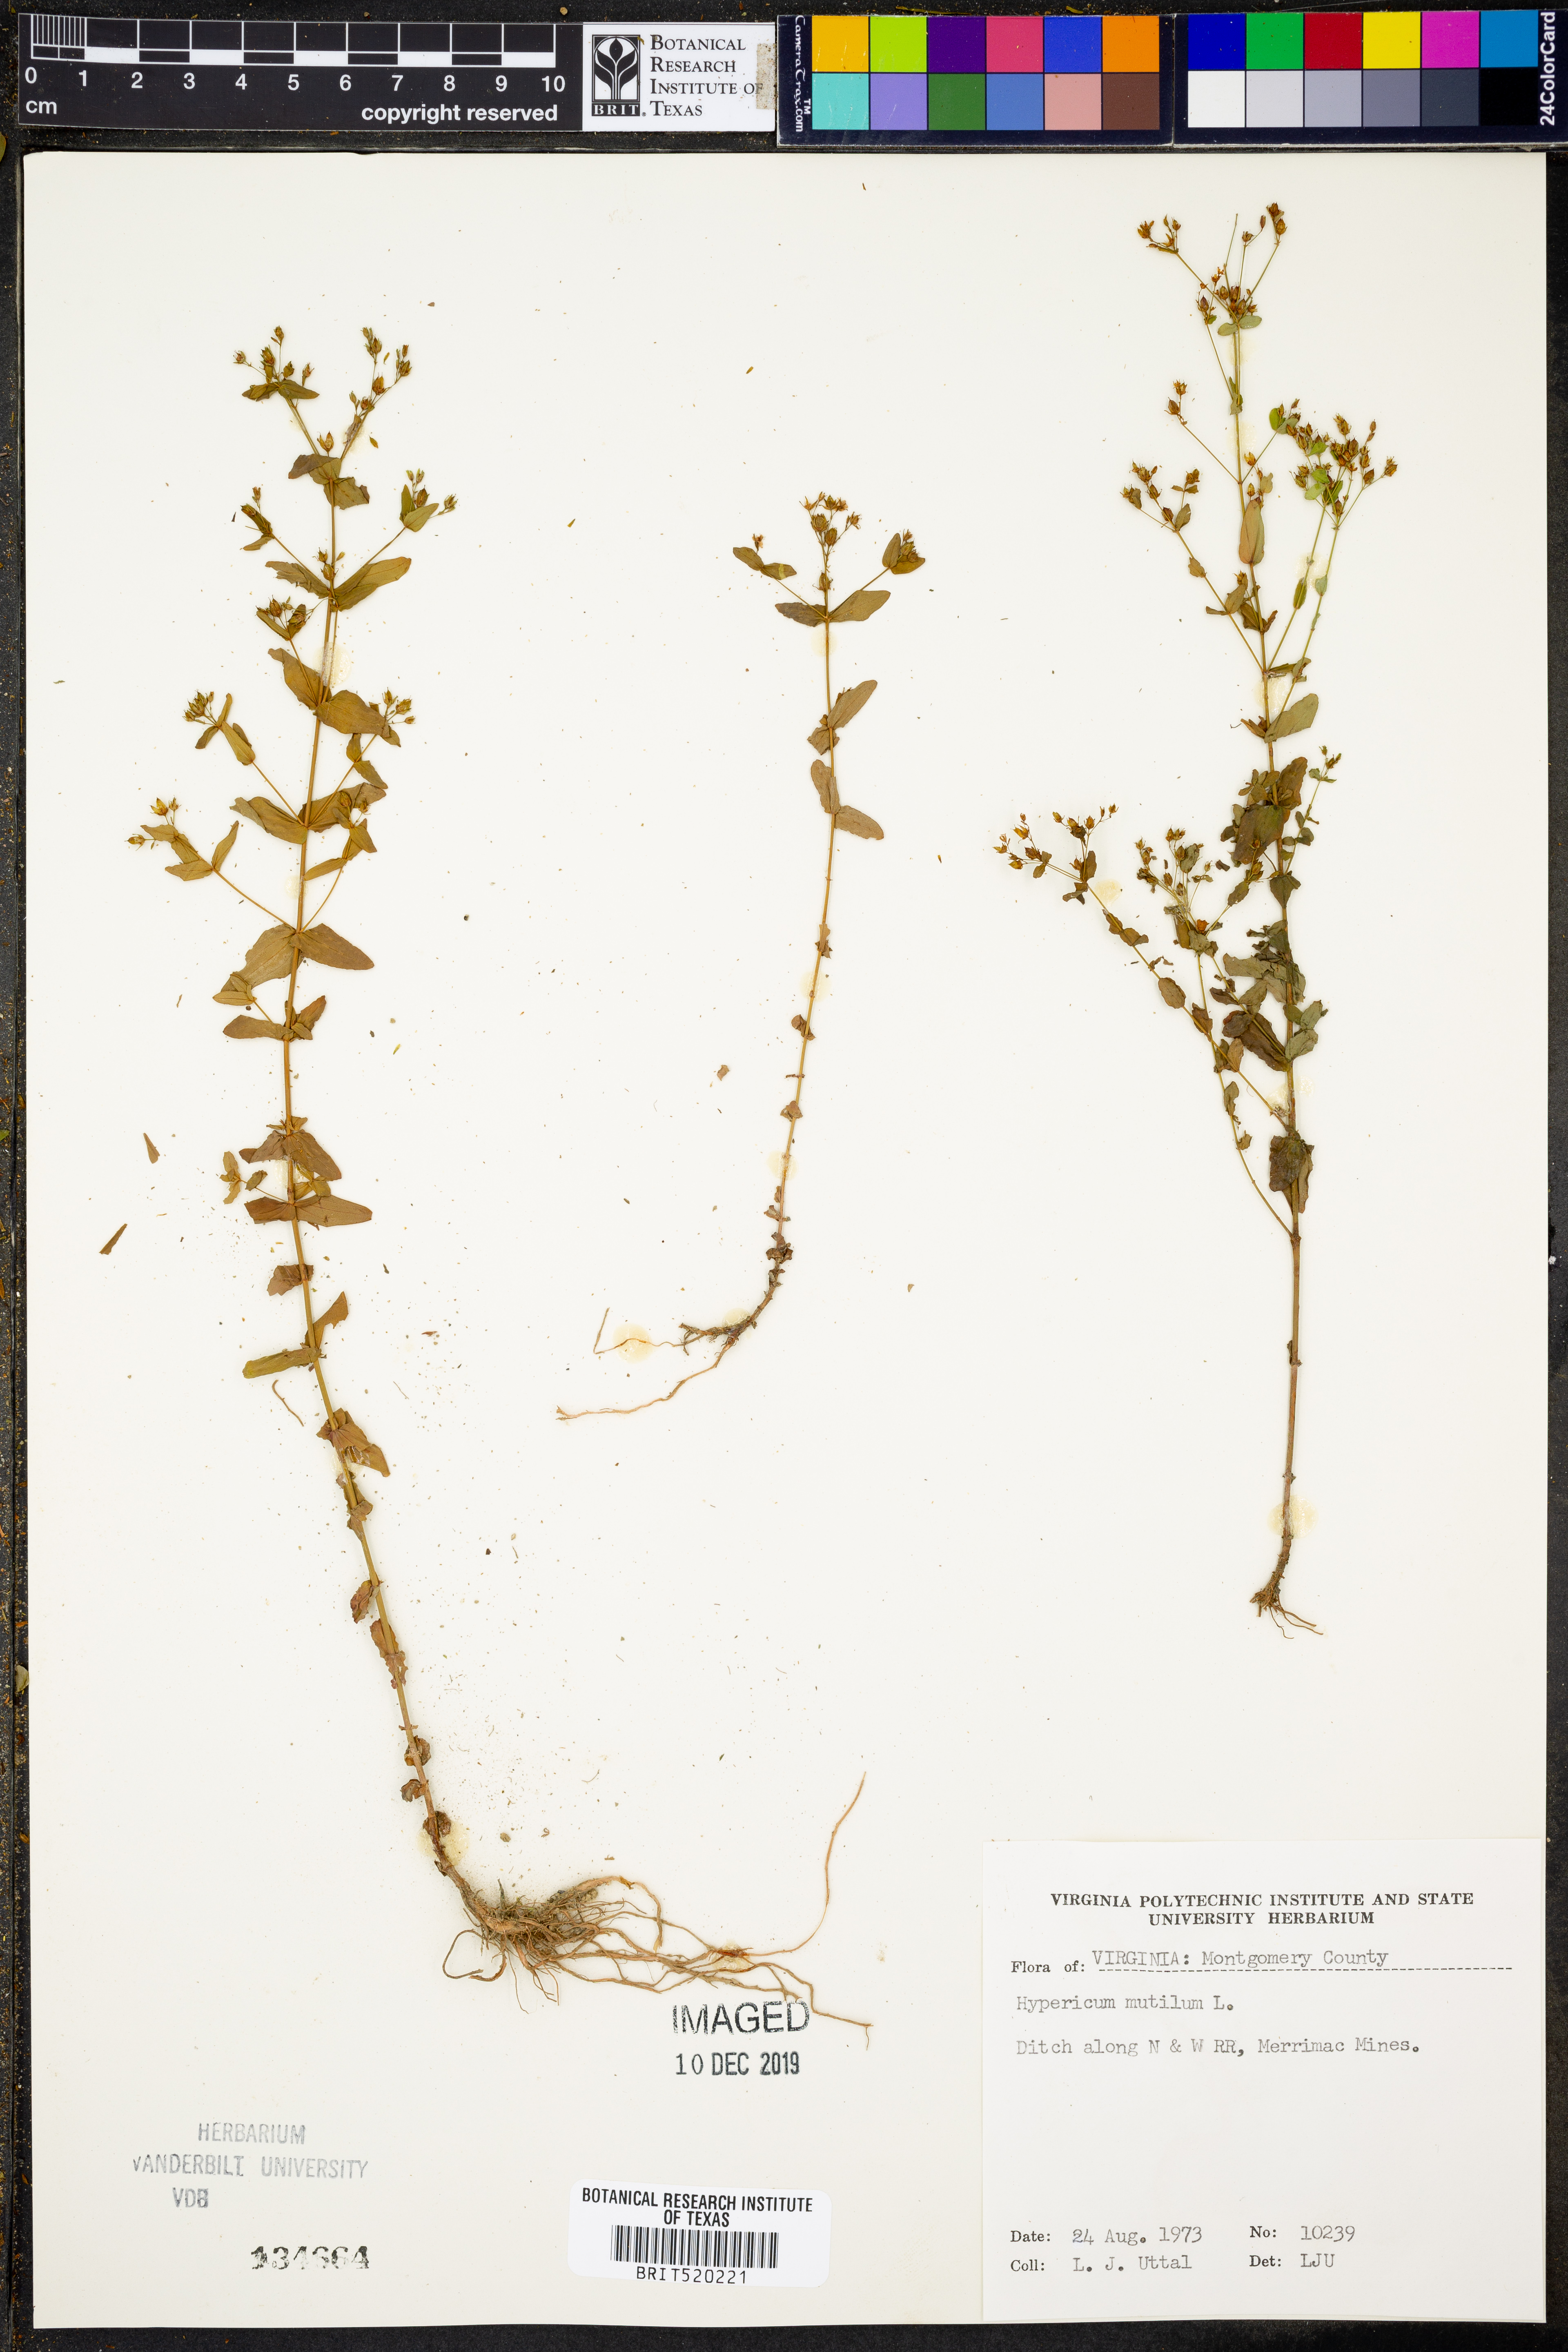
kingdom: Plantae
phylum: Tracheophyta
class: Magnoliopsida
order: Malpighiales
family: Hypericaceae
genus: Hypericum
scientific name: Hypericum mutilum
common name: Dwarf st. john's-wort
